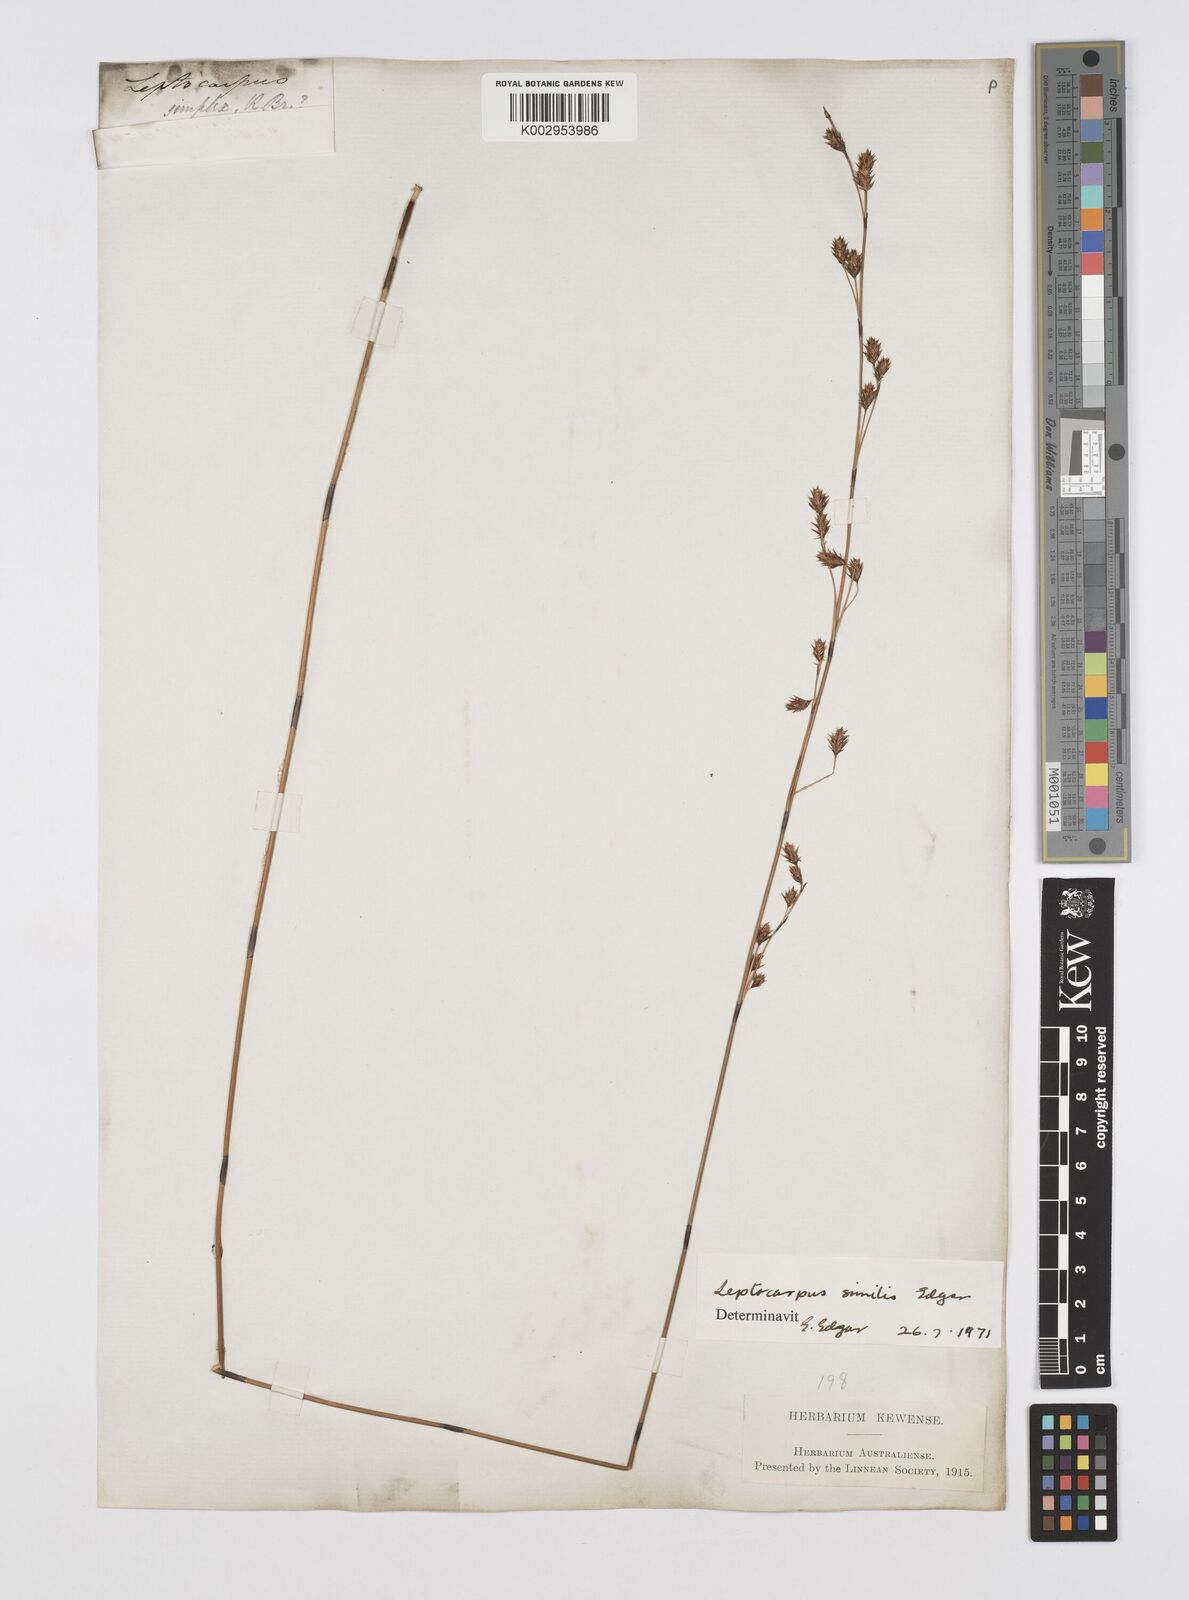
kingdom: Plantae
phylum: Tracheophyta
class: Liliopsida
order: Poales
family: Restionaceae
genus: Apodasmia
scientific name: Apodasmia similis
